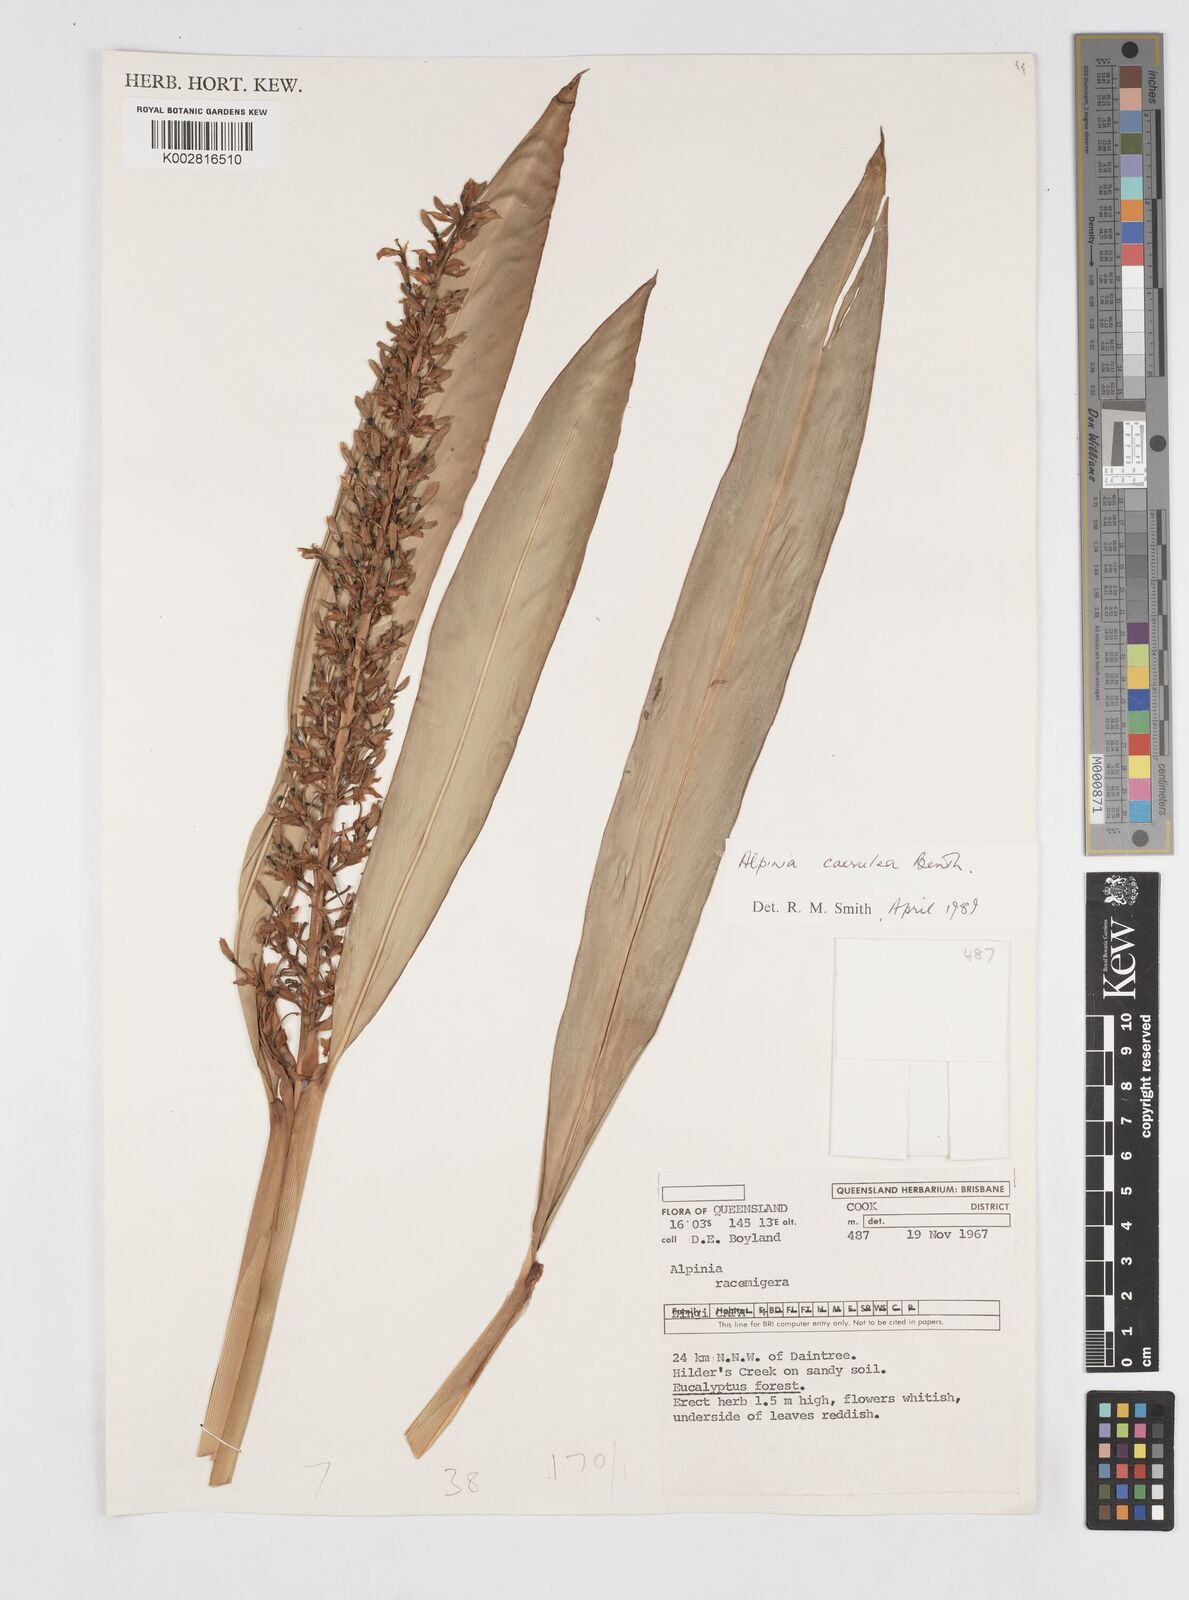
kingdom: Plantae
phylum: Tracheophyta
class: Liliopsida
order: Zingiberales
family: Zingiberaceae
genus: Alpinia
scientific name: Alpinia
